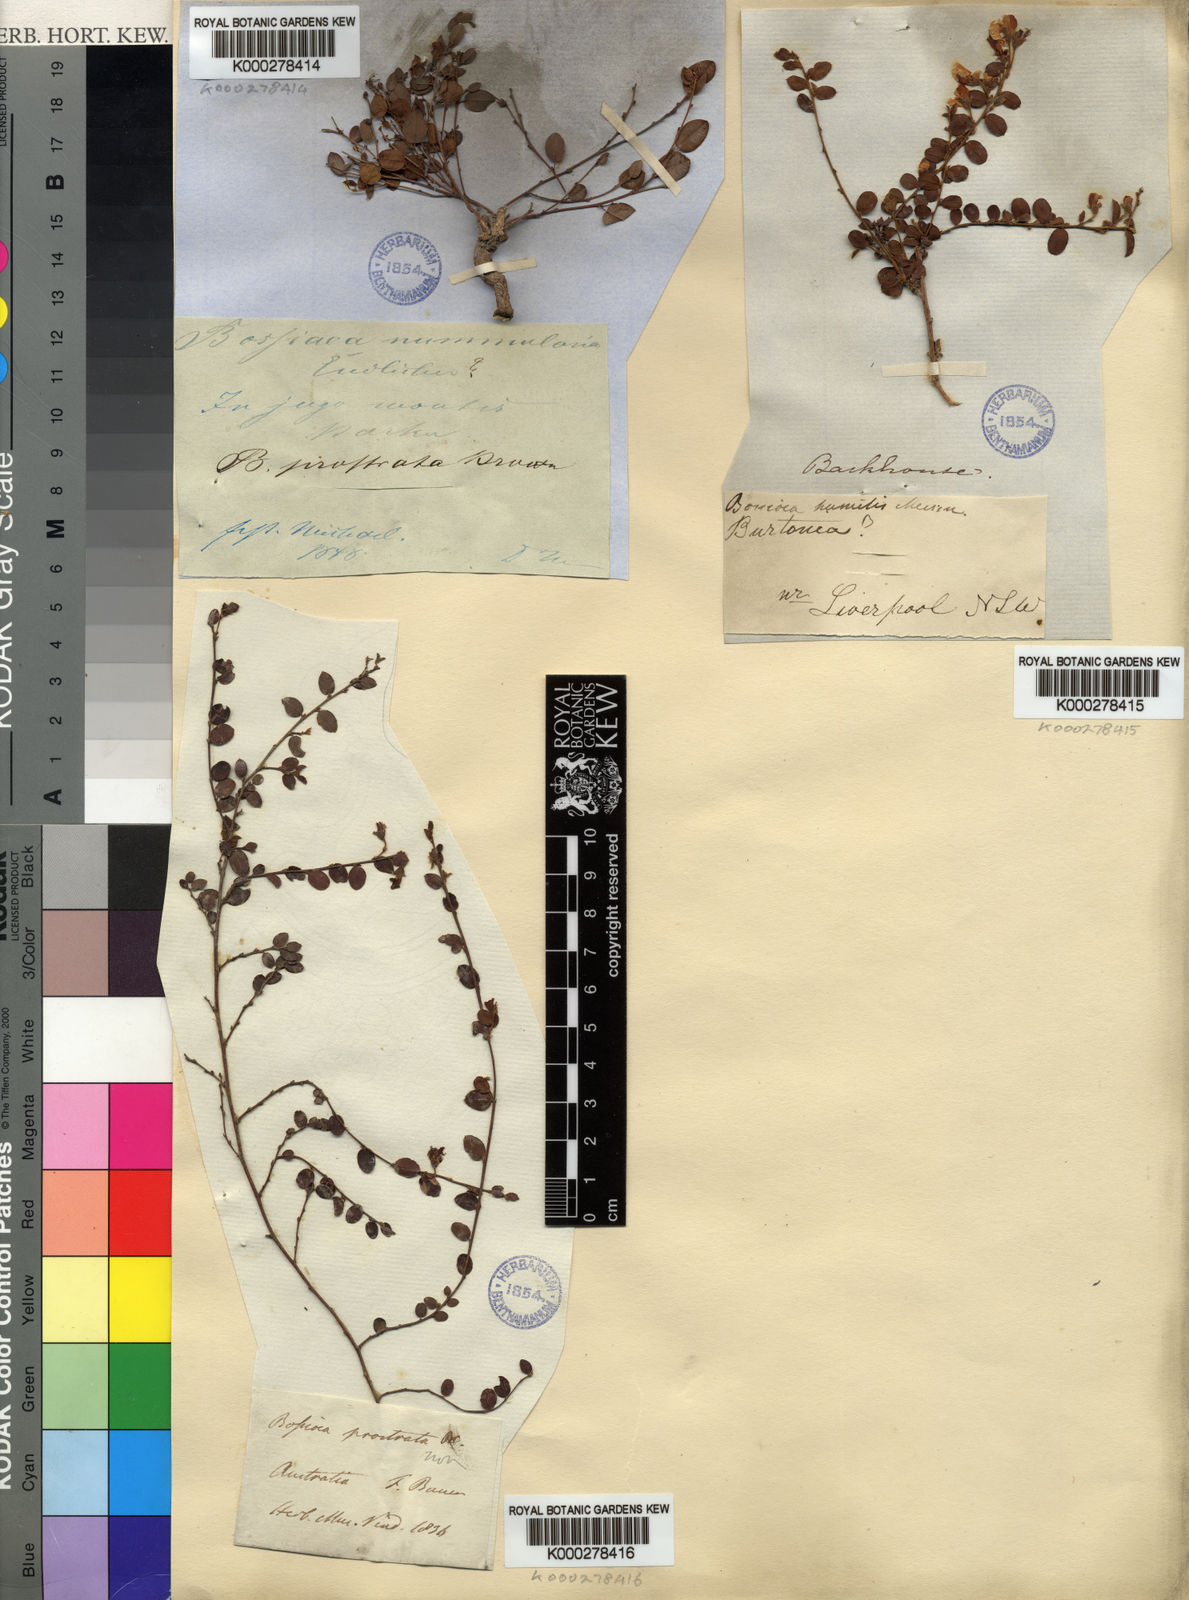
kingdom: Plantae
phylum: Tracheophyta
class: Magnoliopsida
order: Fabales
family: Fabaceae
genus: Bossiaea
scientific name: Bossiaea prostrata
